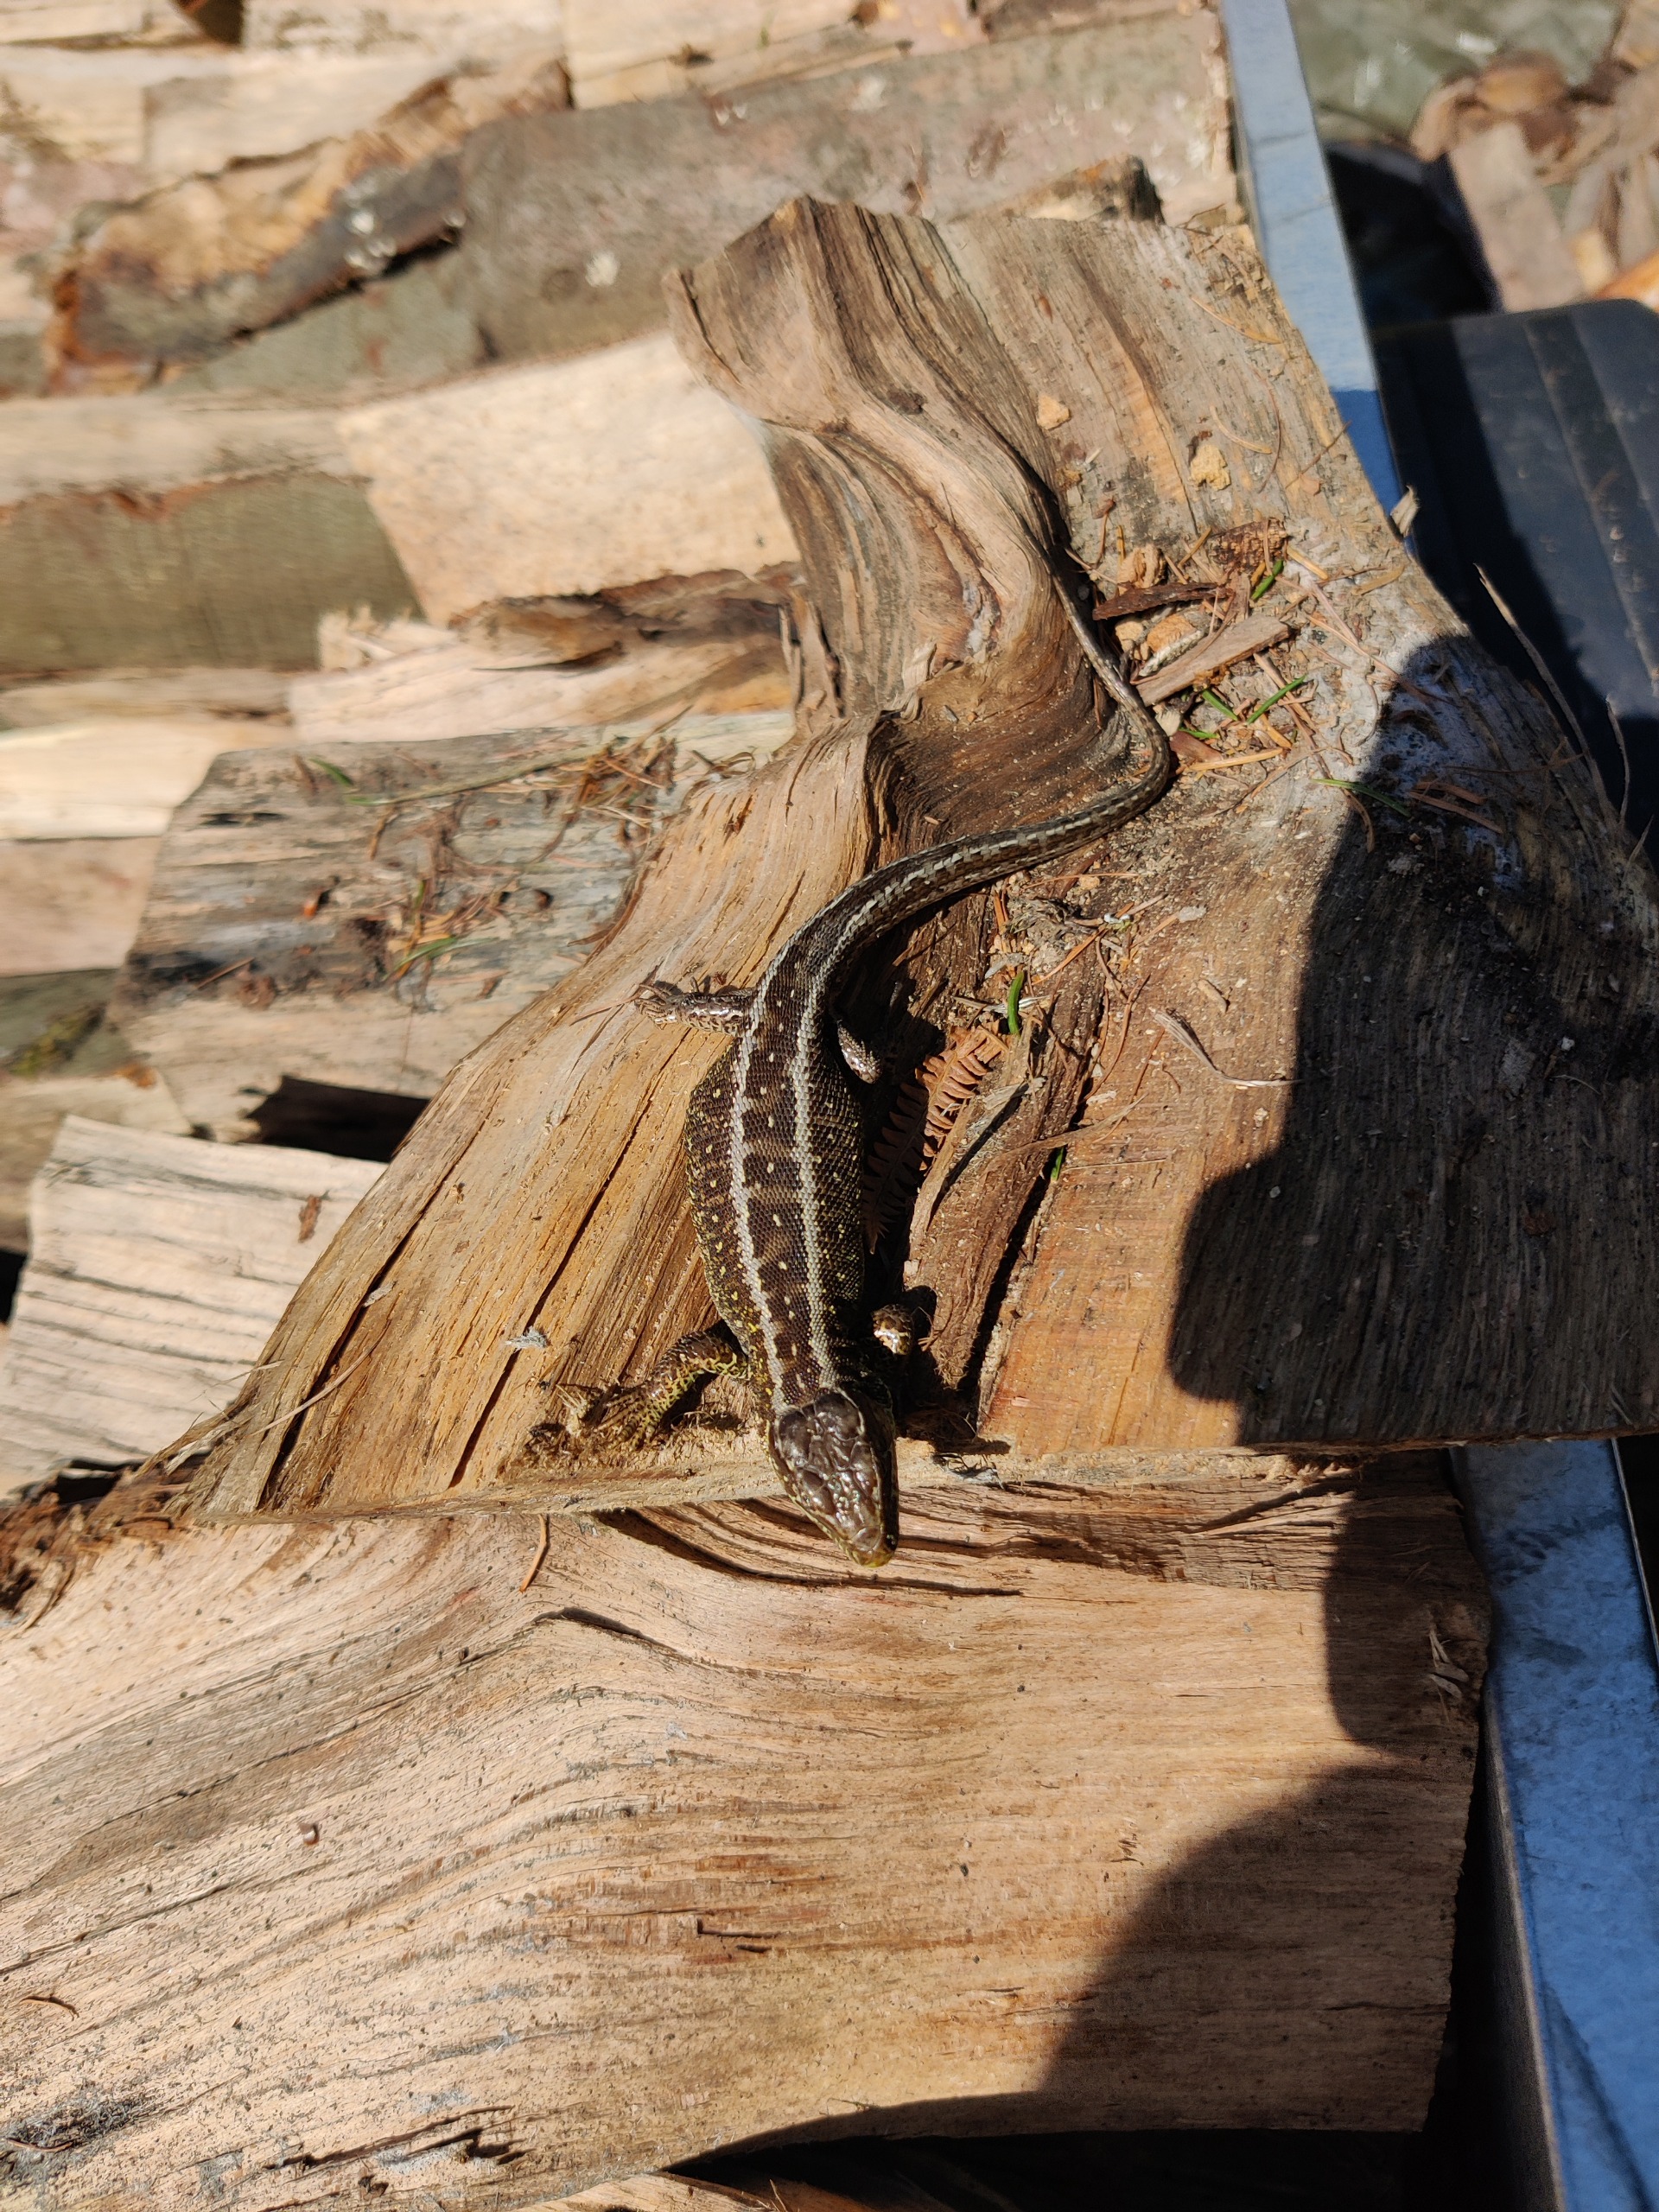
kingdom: Animalia
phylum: Chordata
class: Squamata
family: Lacertidae
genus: Lacerta
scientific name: Lacerta agilis
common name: Markfirben
